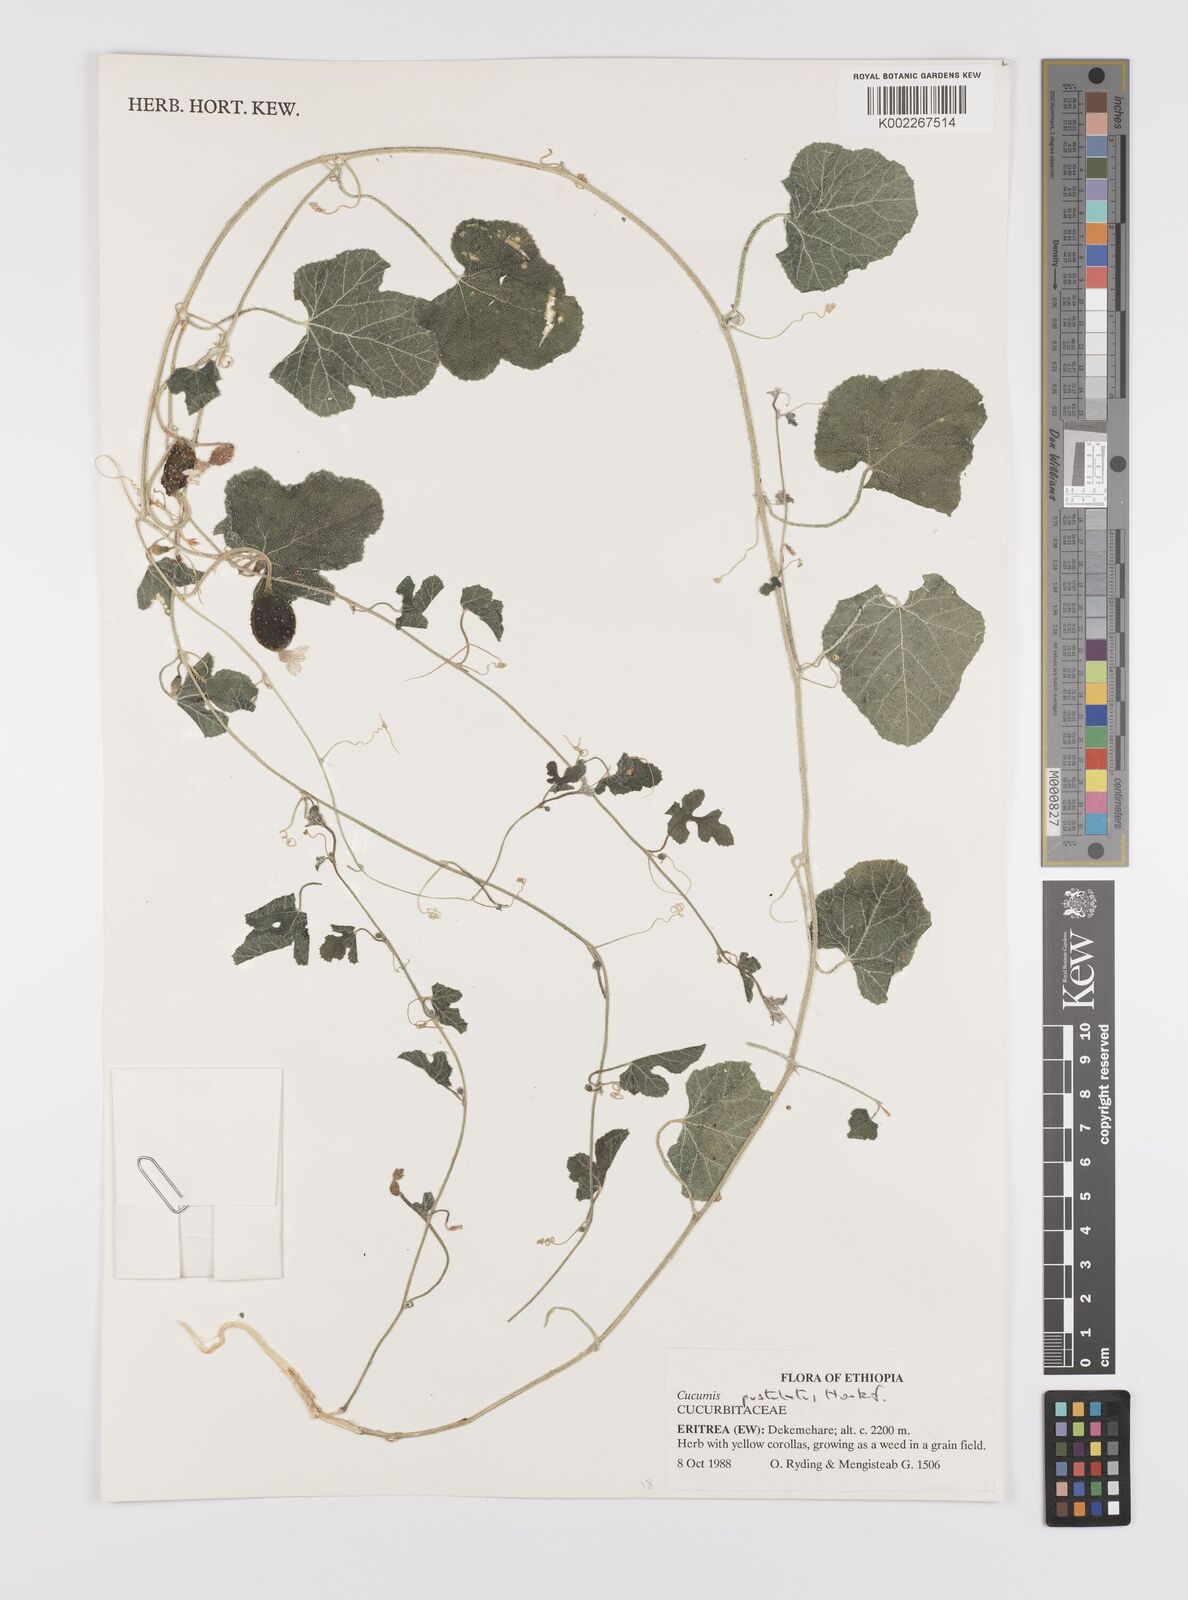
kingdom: Plantae
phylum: Tracheophyta
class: Magnoliopsida
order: Cucurbitales
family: Cucurbitaceae
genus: Cucumis
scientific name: Cucumis pustulatus
